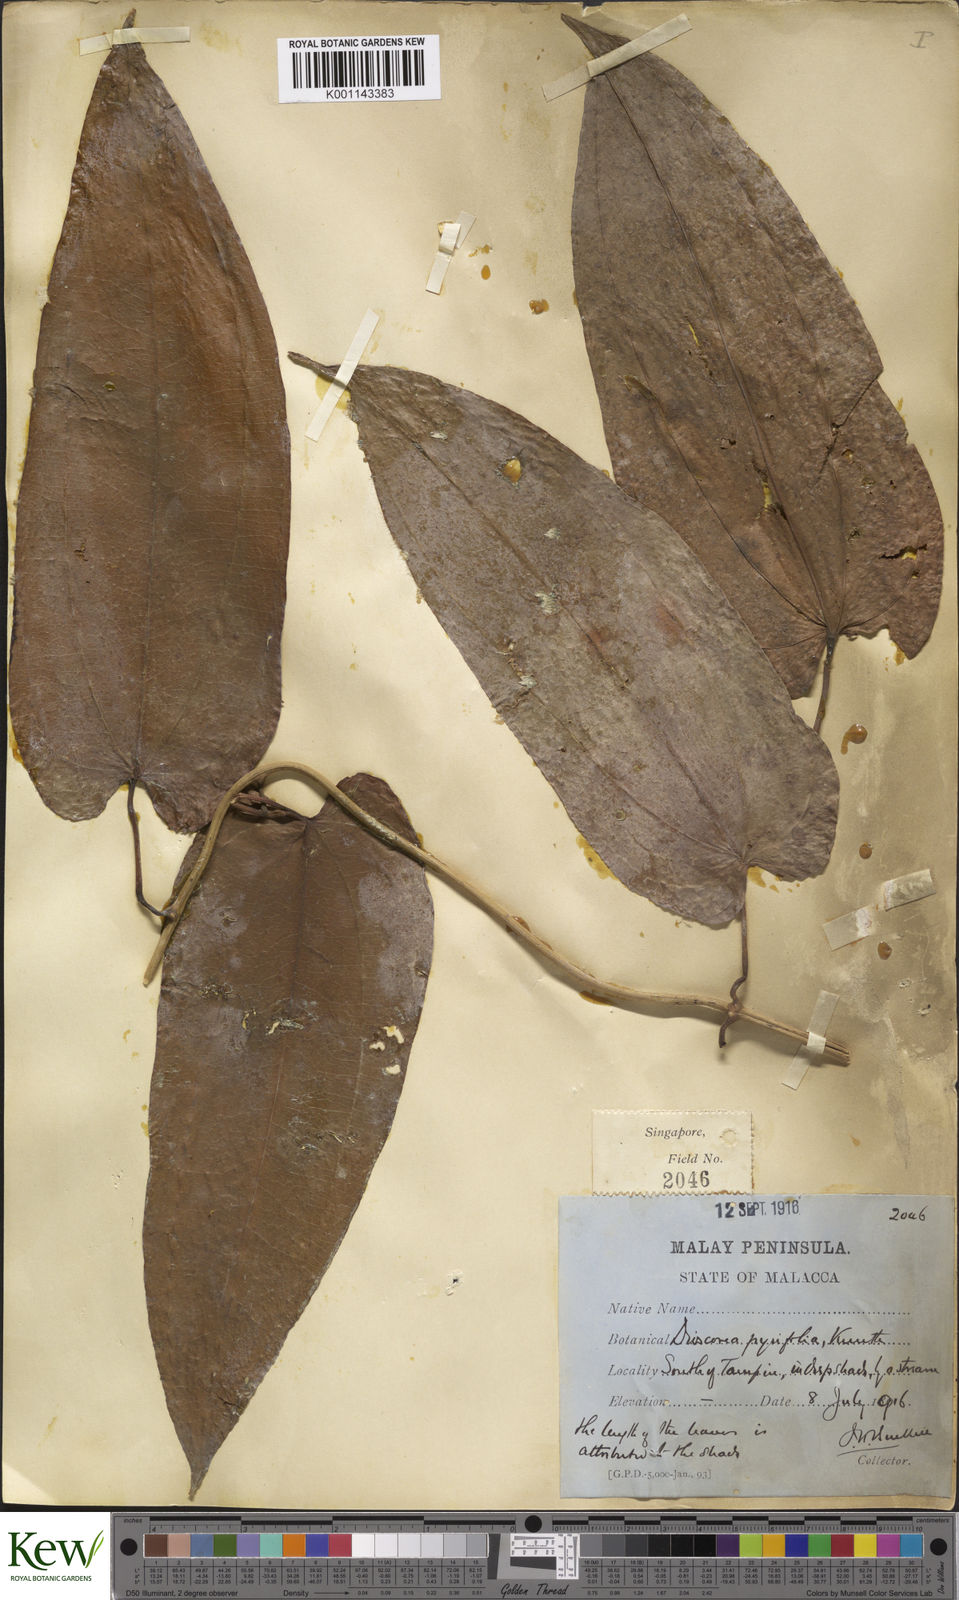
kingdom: Plantae
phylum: Tracheophyta
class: Liliopsida
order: Dioscoreales
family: Dioscoreaceae
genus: Dioscorea
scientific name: Dioscorea pyrifolia
